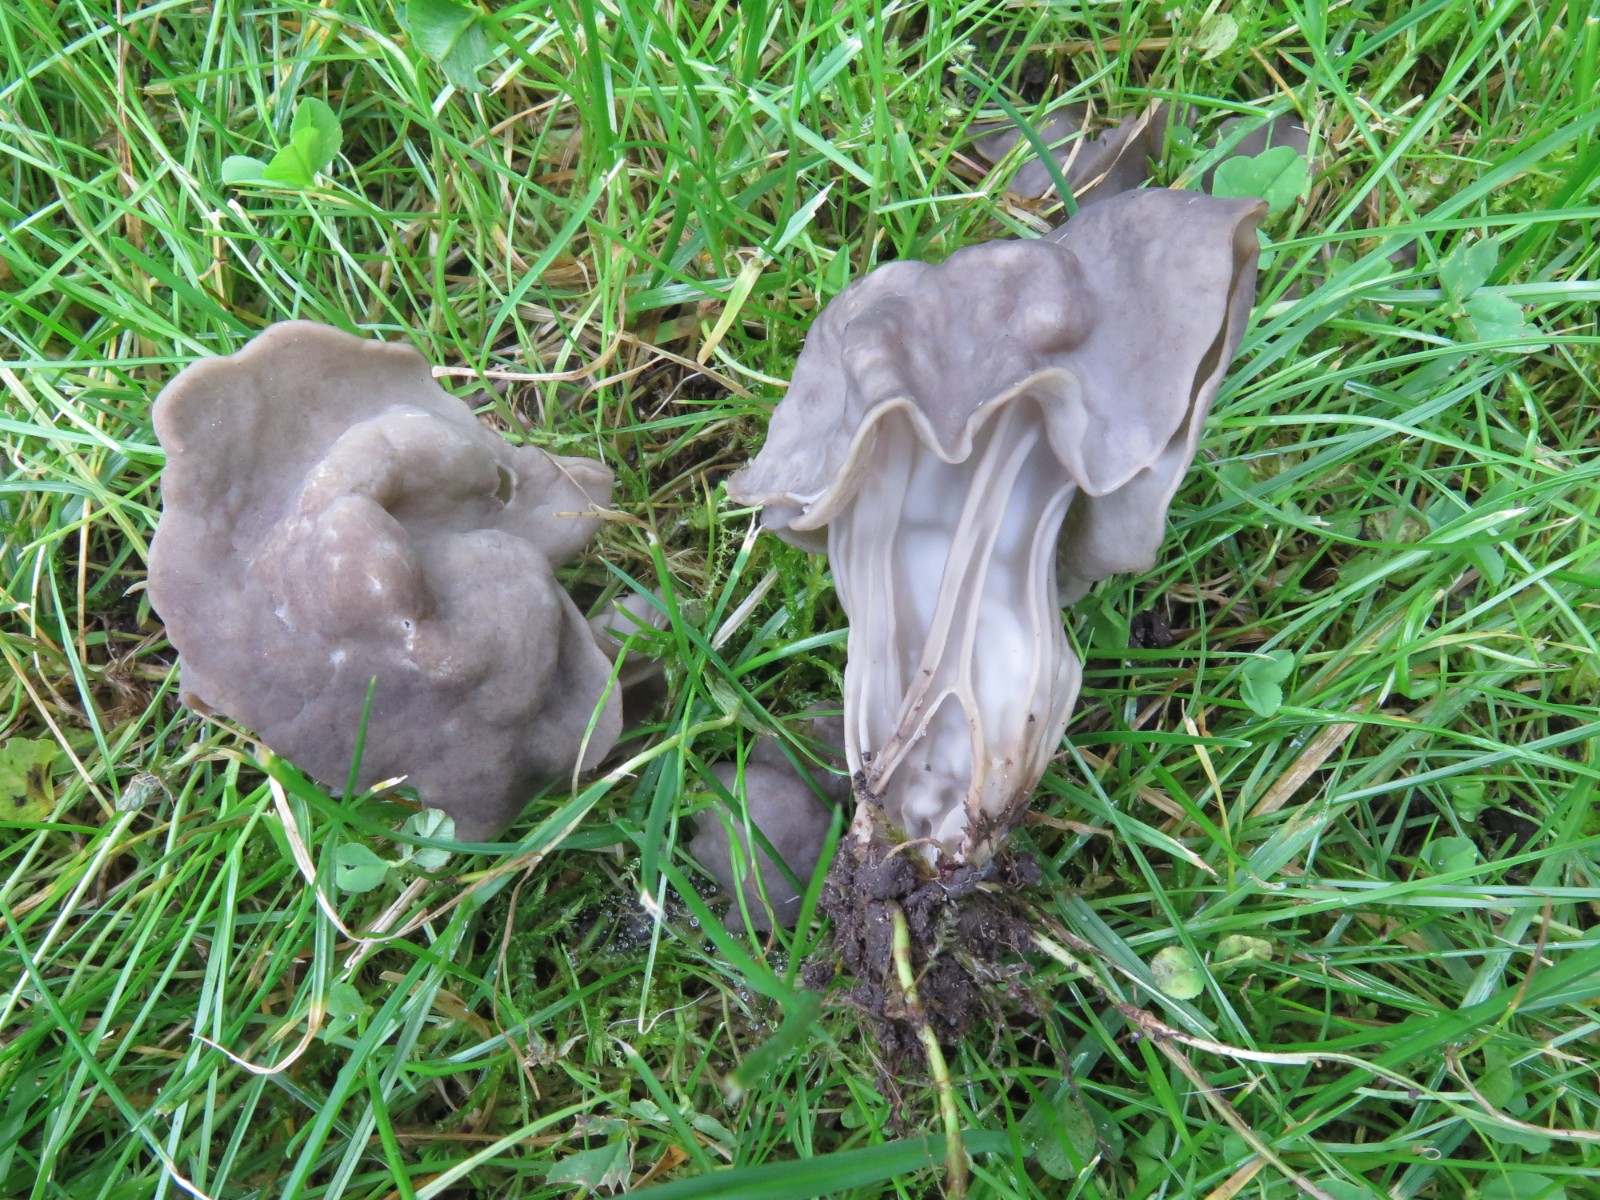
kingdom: Fungi
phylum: Ascomycota
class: Pezizomycetes
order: Pezizales
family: Helvellaceae
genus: Helvella
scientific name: Helvella lacunosa
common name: grubet foldhat
